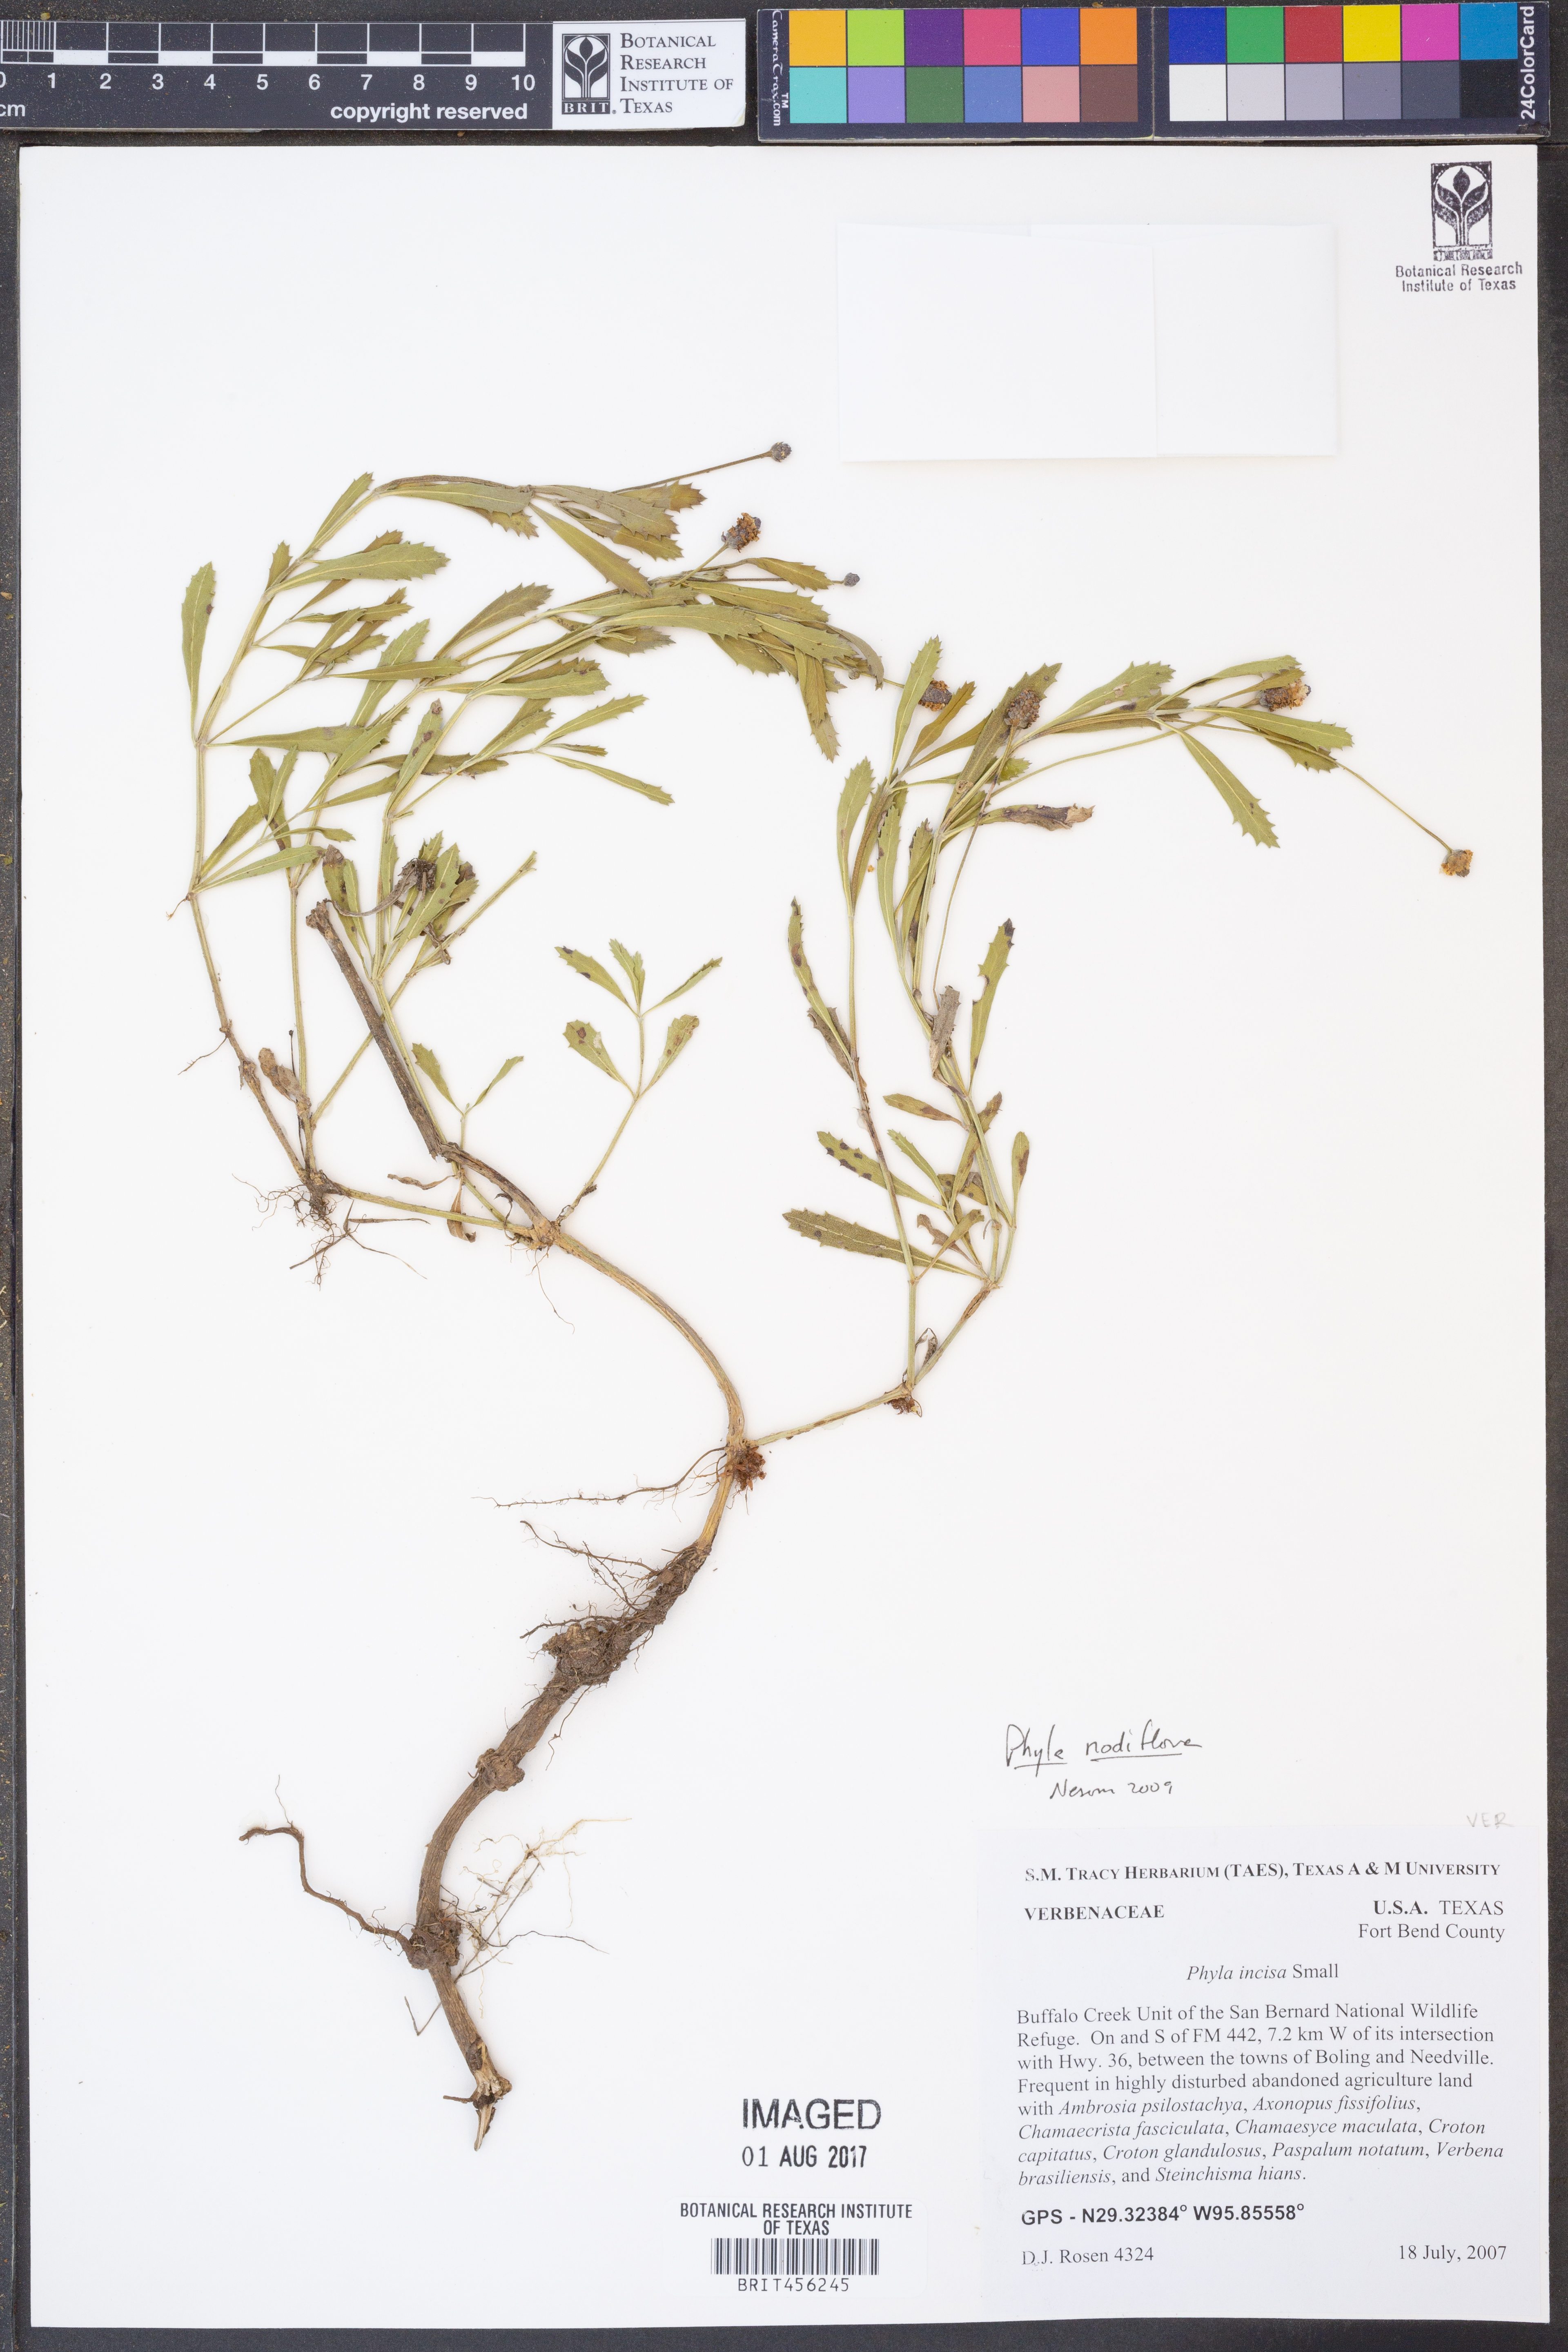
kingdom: Plantae
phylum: Tracheophyta
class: Magnoliopsida
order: Lamiales
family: Verbenaceae
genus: Phyla
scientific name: Phyla nodiflora
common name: Frogfruit
